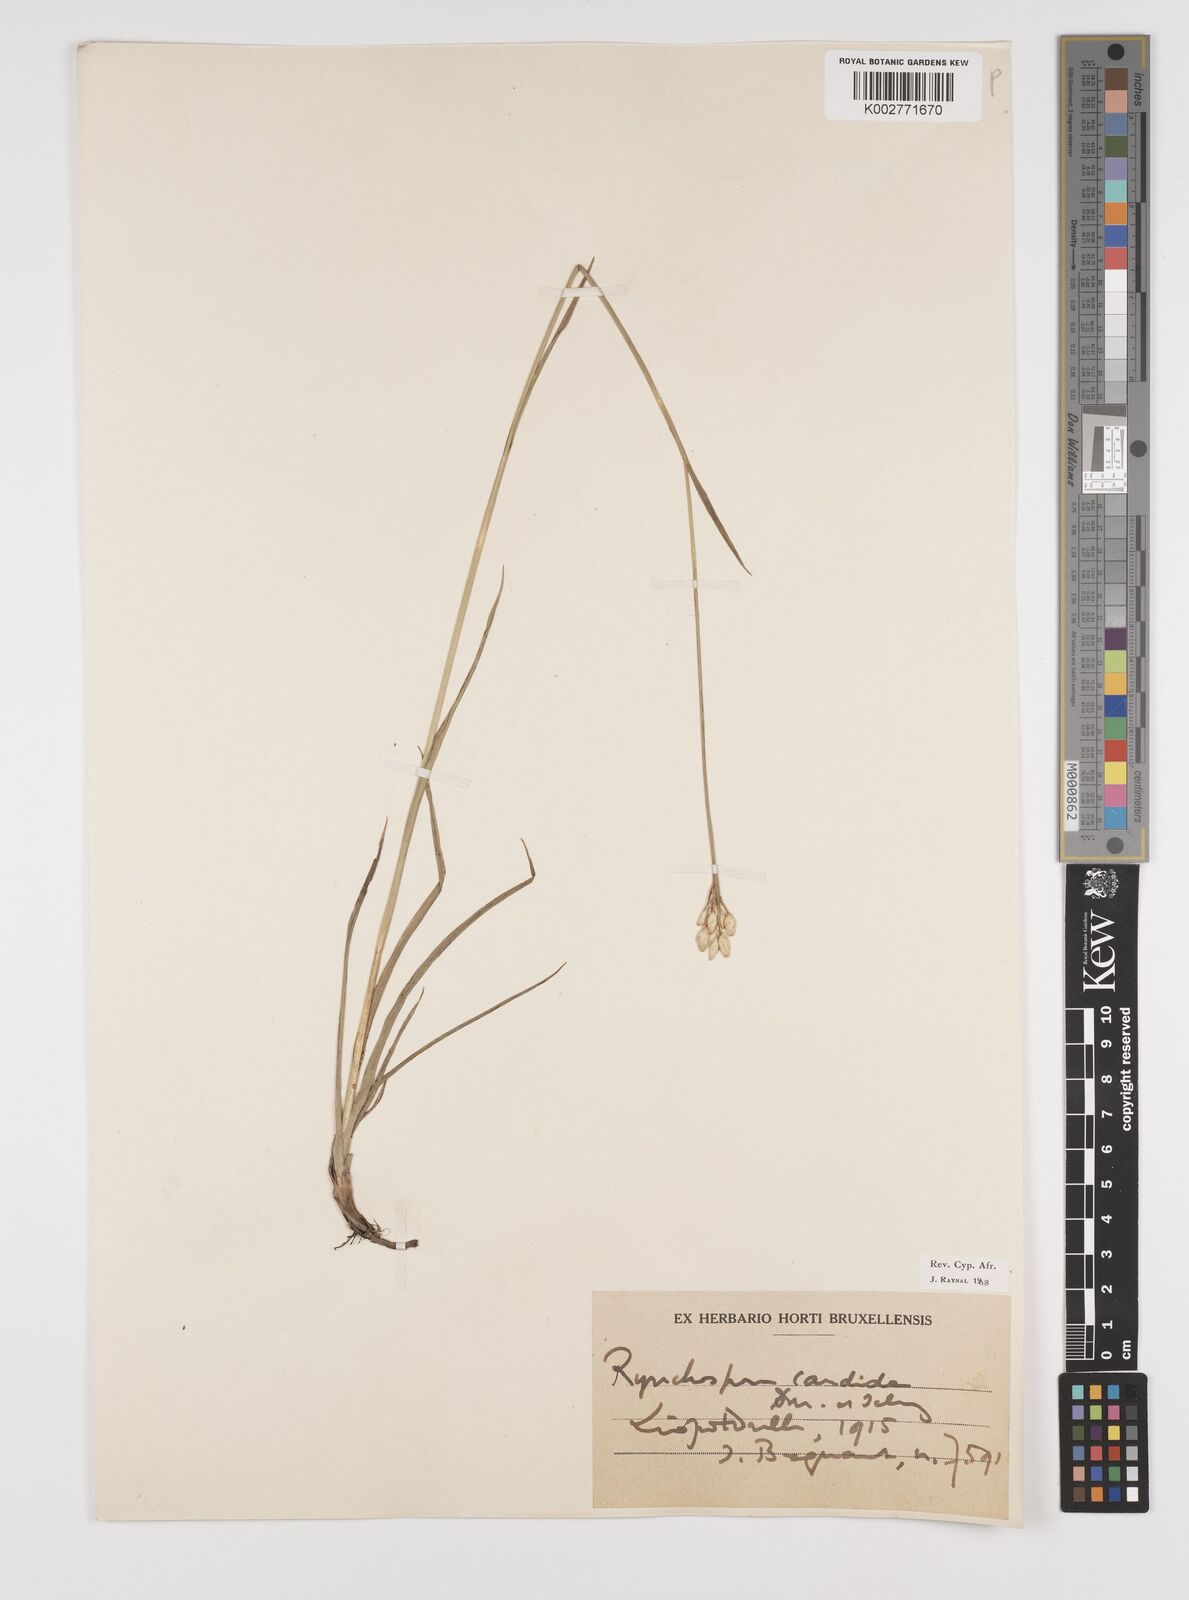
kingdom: Plantae
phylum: Tracheophyta
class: Liliopsida
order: Poales
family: Cyperaceae
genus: Rhynchospora
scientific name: Rhynchospora candida
